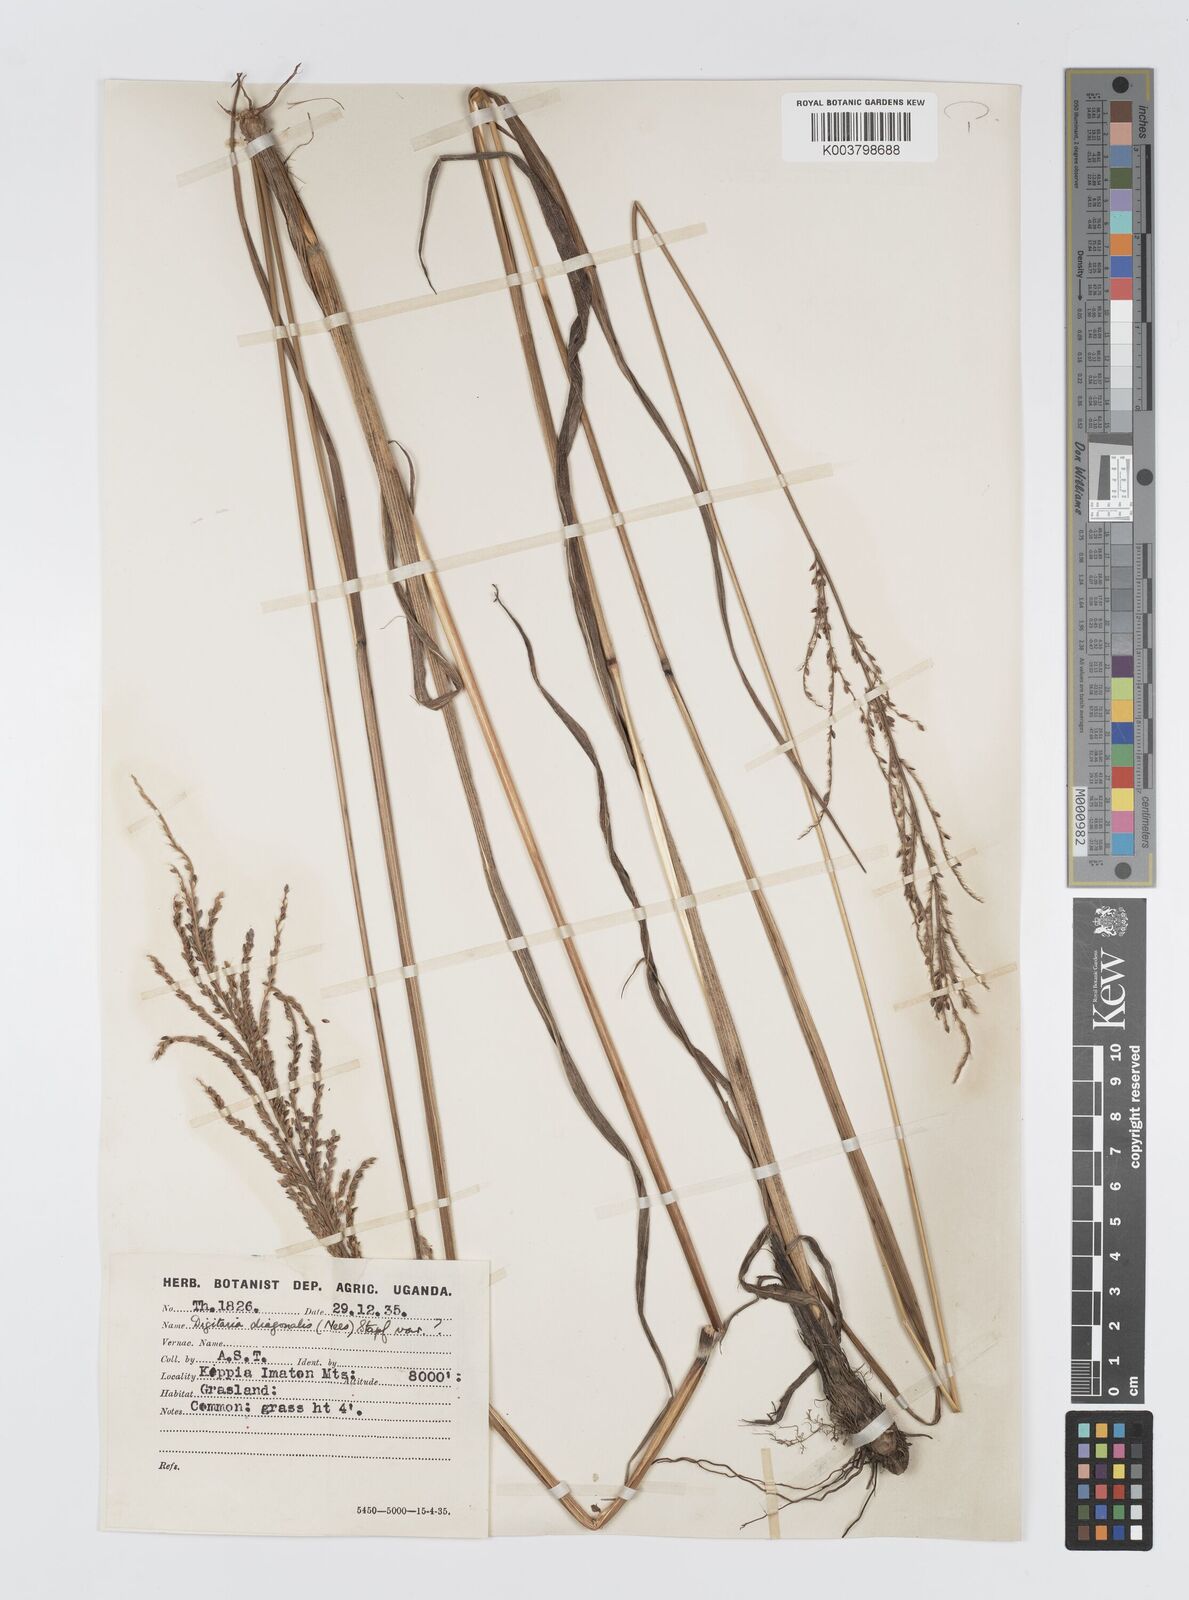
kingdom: Plantae
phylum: Tracheophyta
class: Liliopsida
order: Poales
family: Poaceae
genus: Digitaria
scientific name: Digitaria diagonalis
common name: Brown-seed finger grass
